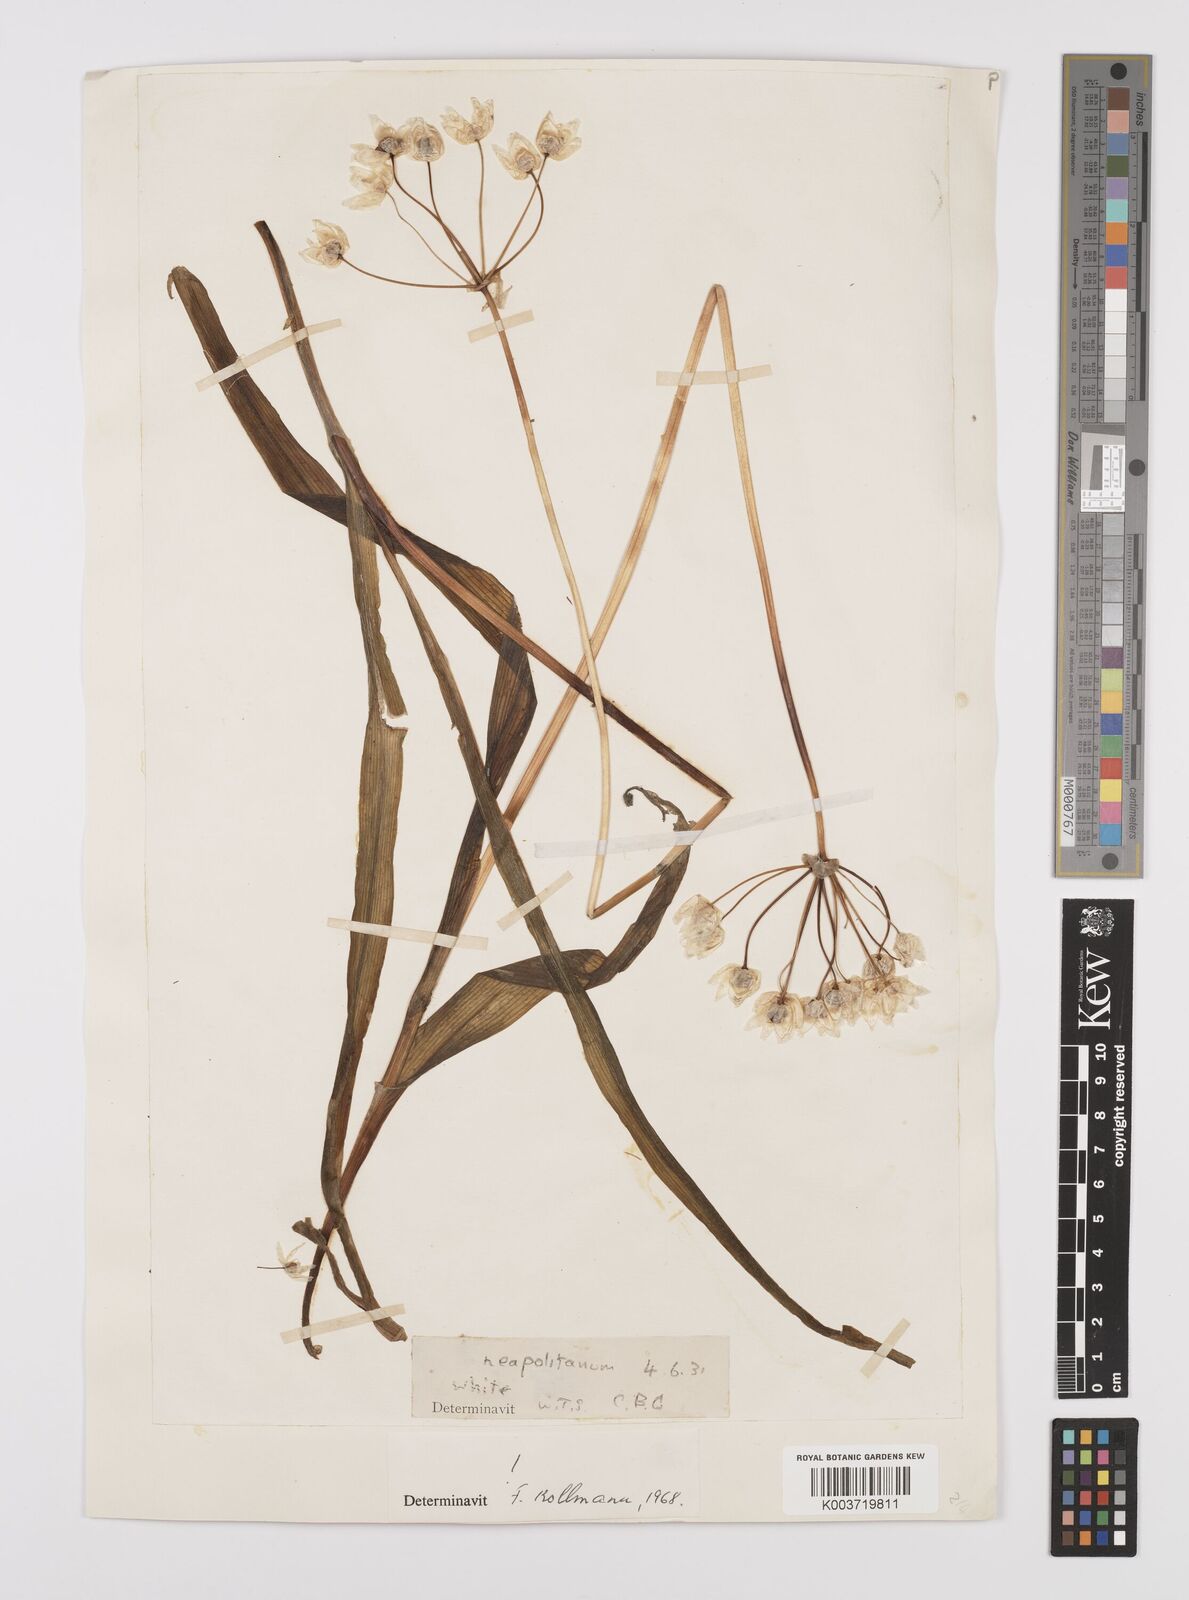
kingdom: Plantae
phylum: Tracheophyta
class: Liliopsida
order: Asparagales
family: Amaryllidaceae
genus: Allium
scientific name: Allium neapolitanum
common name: Neapolitan garlic
